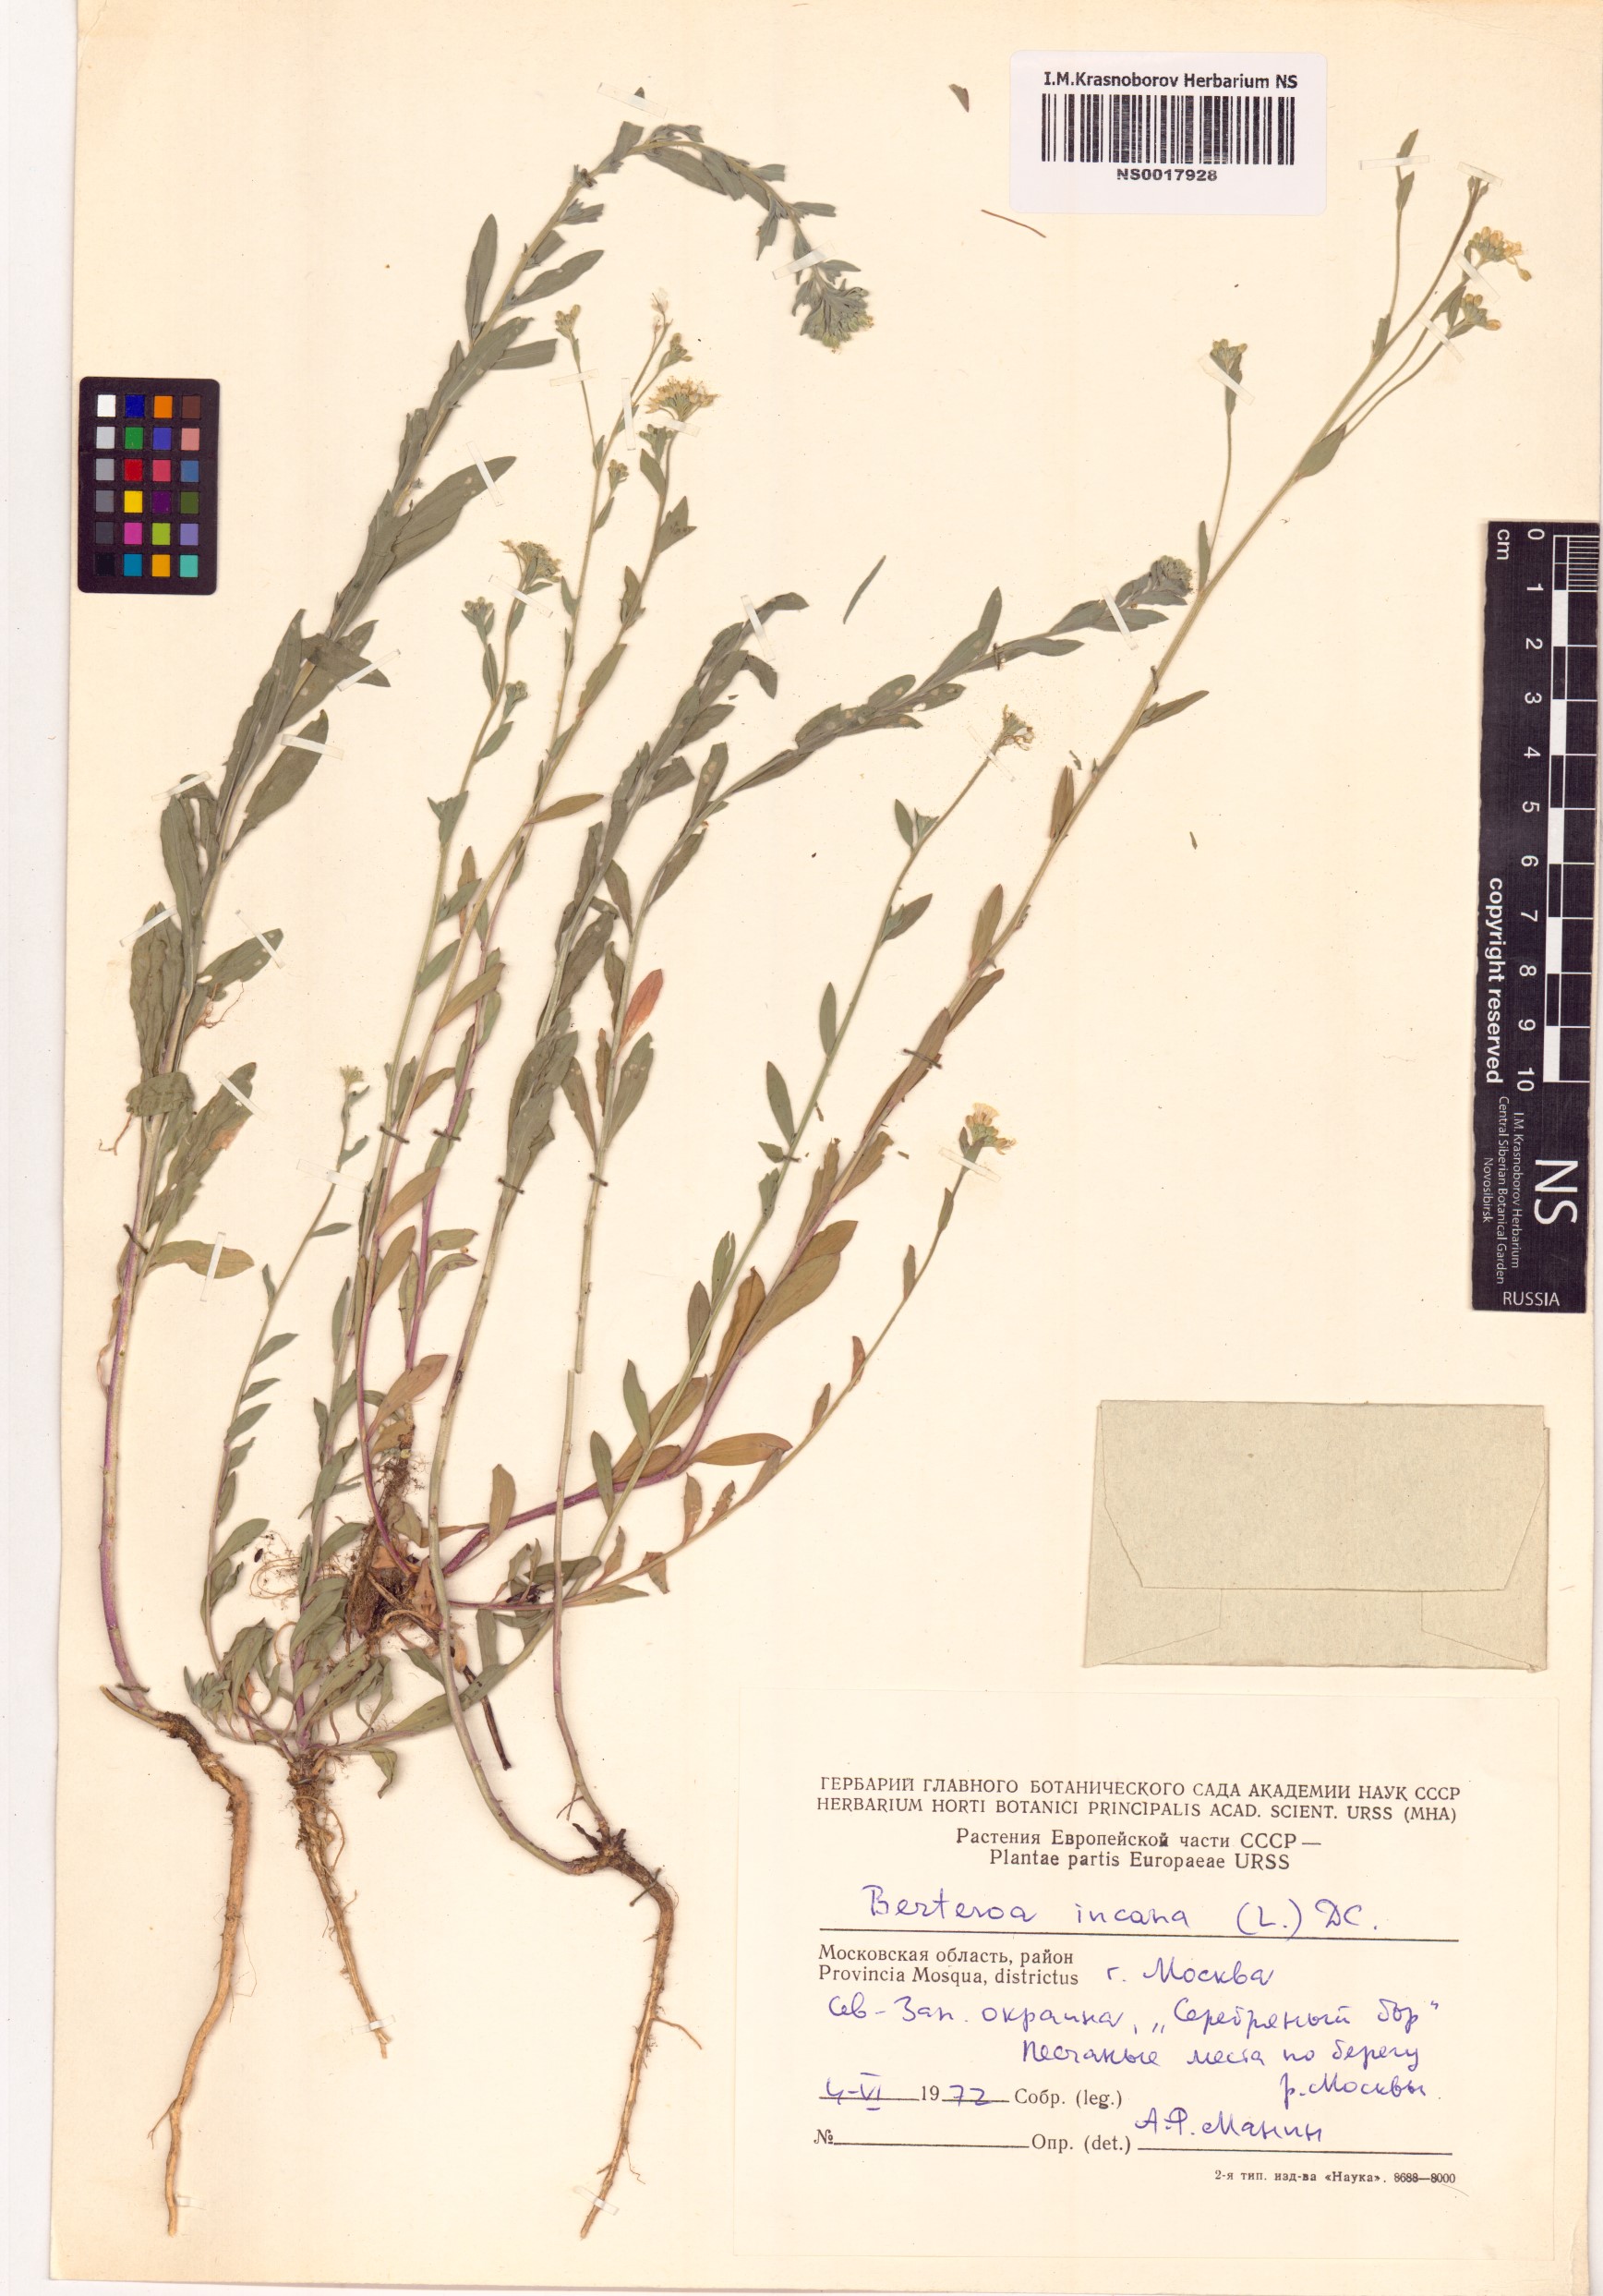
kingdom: Plantae
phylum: Tracheophyta
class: Magnoliopsida
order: Brassicales
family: Brassicaceae
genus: Berteroa
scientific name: Berteroa incana
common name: Hoary alison
